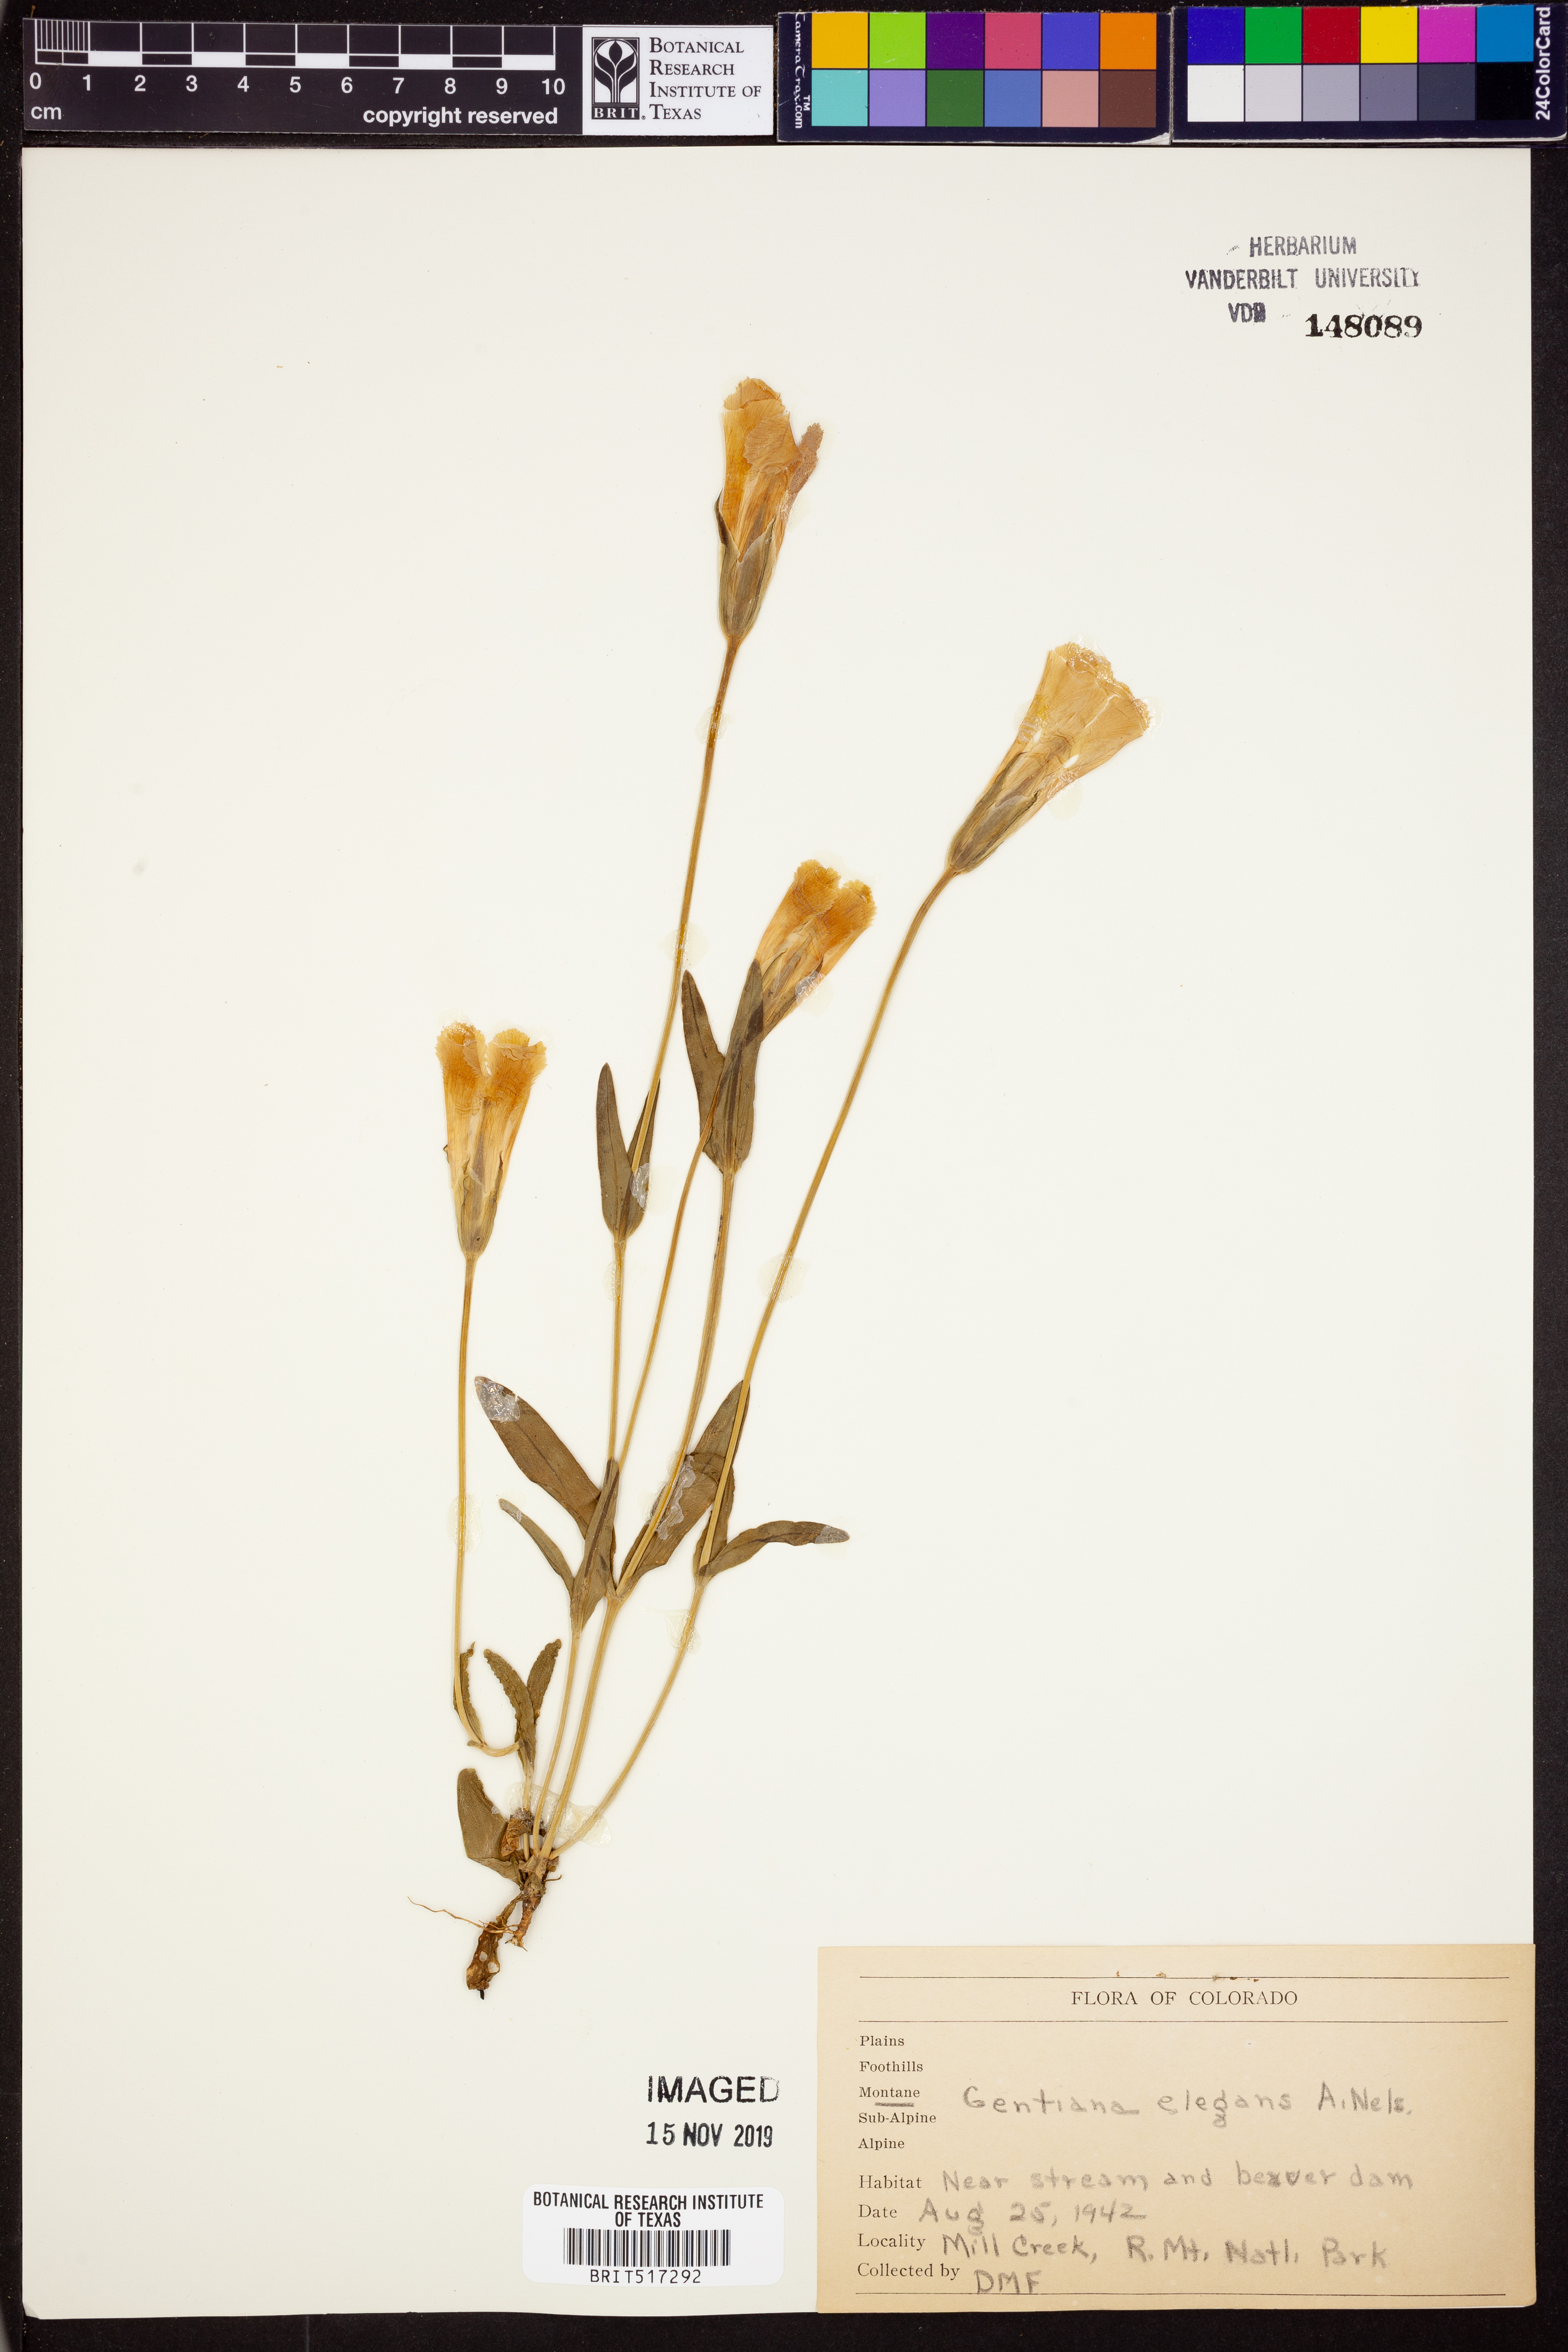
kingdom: Plantae
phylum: Tracheophyta
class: Magnoliopsida
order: Gentianales
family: Gentianaceae
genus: Gentianopsis
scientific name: Gentianopsis thermalis
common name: Rocky mountain fringed-gentian
